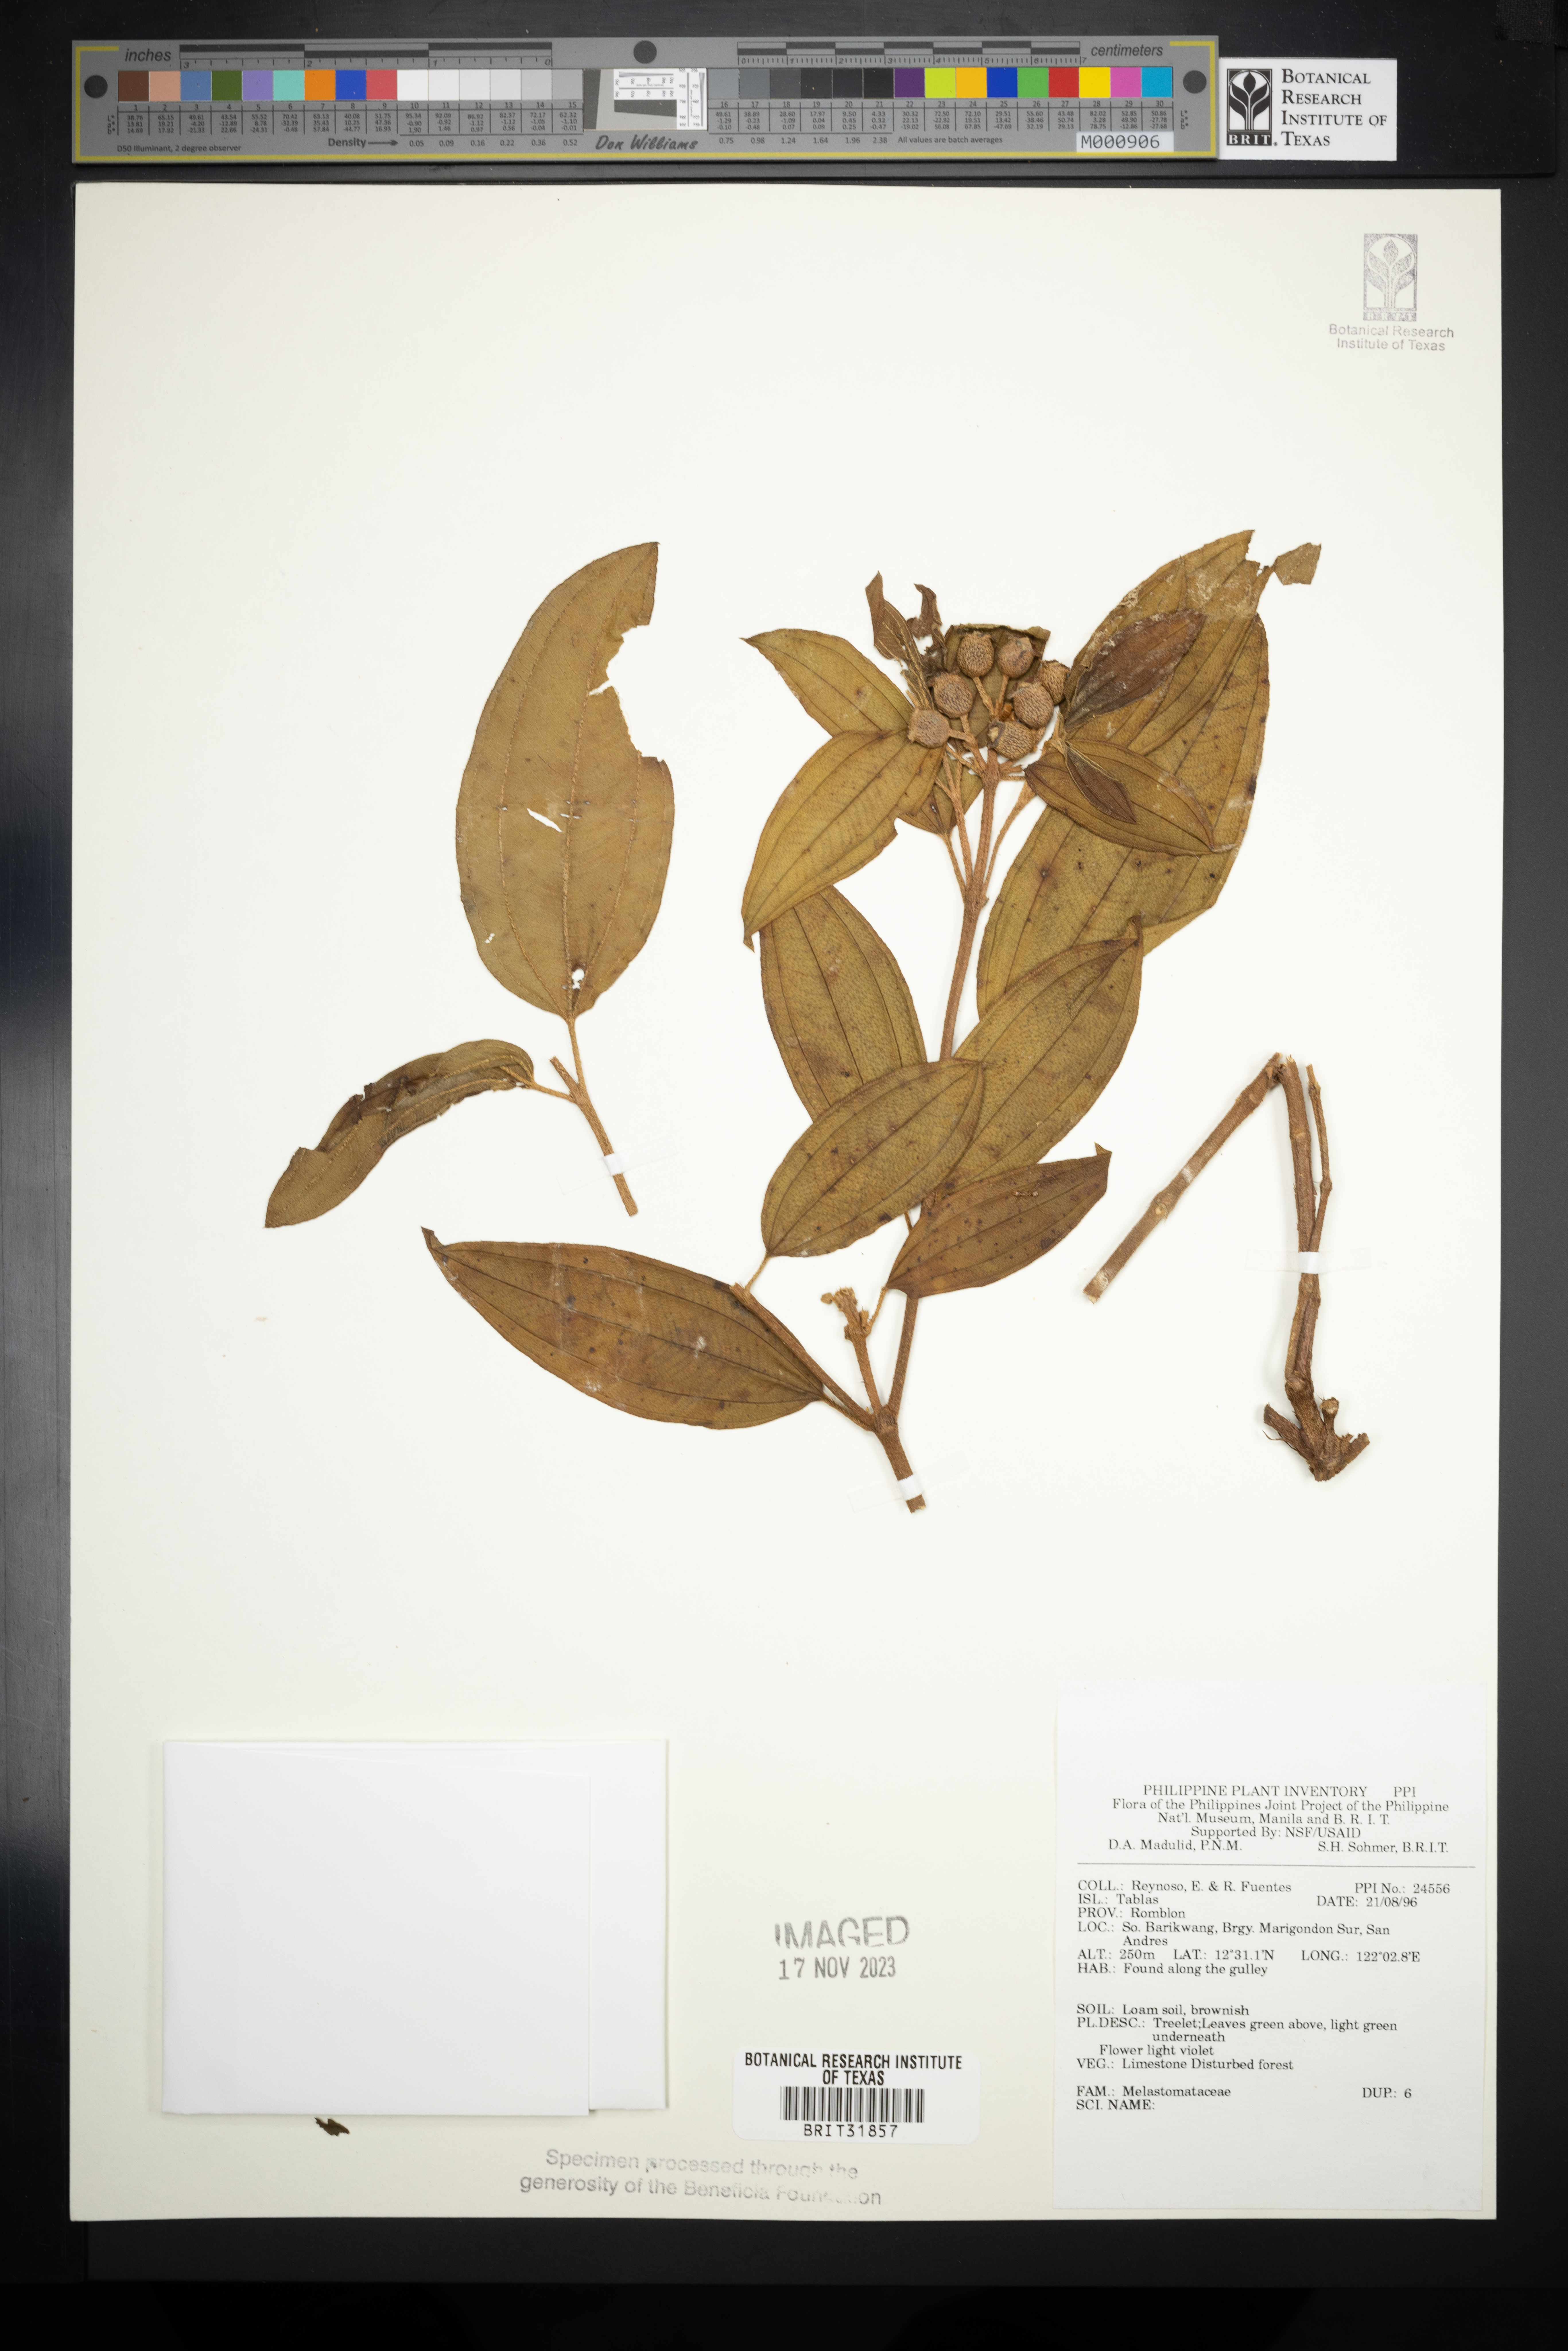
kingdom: Plantae
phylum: Tracheophyta
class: Magnoliopsida
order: Myrtales
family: Melastomataceae
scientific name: Melastomataceae
